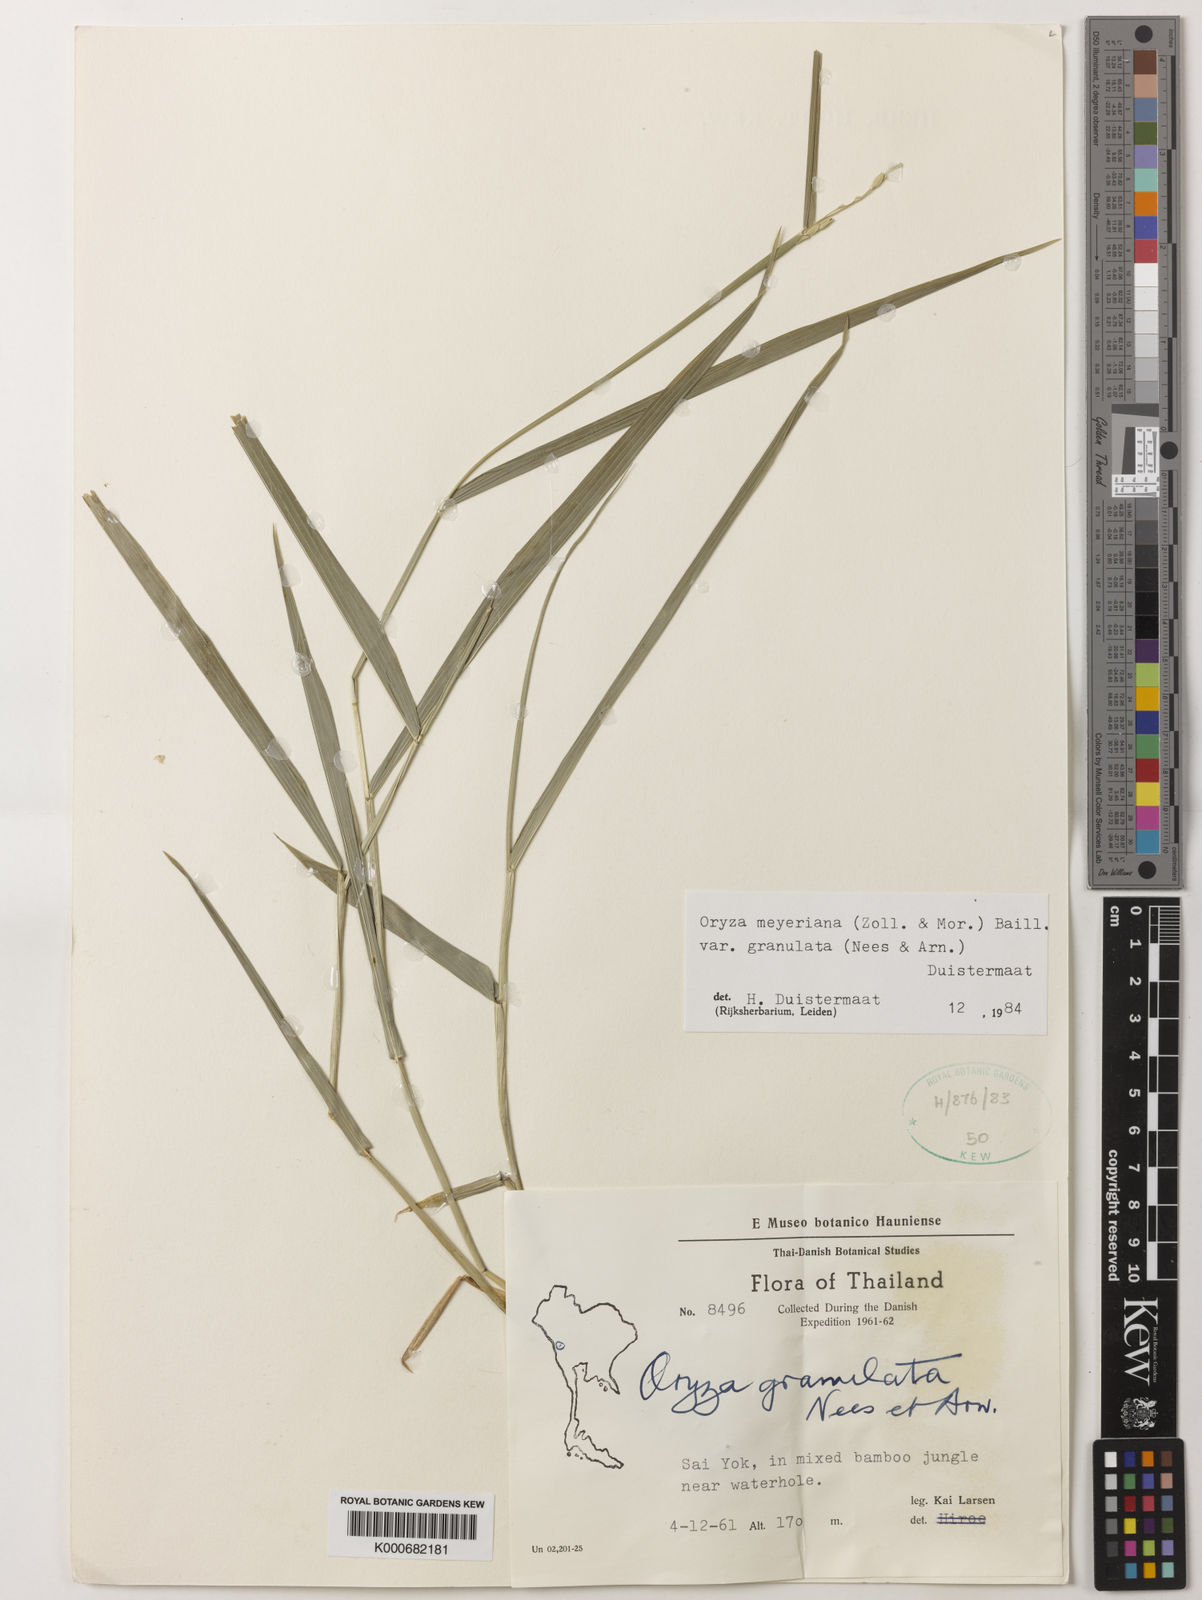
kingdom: Plantae
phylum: Tracheophyta
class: Liliopsida
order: Poales
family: Poaceae
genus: Oryza
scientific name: Oryza meyeriana
